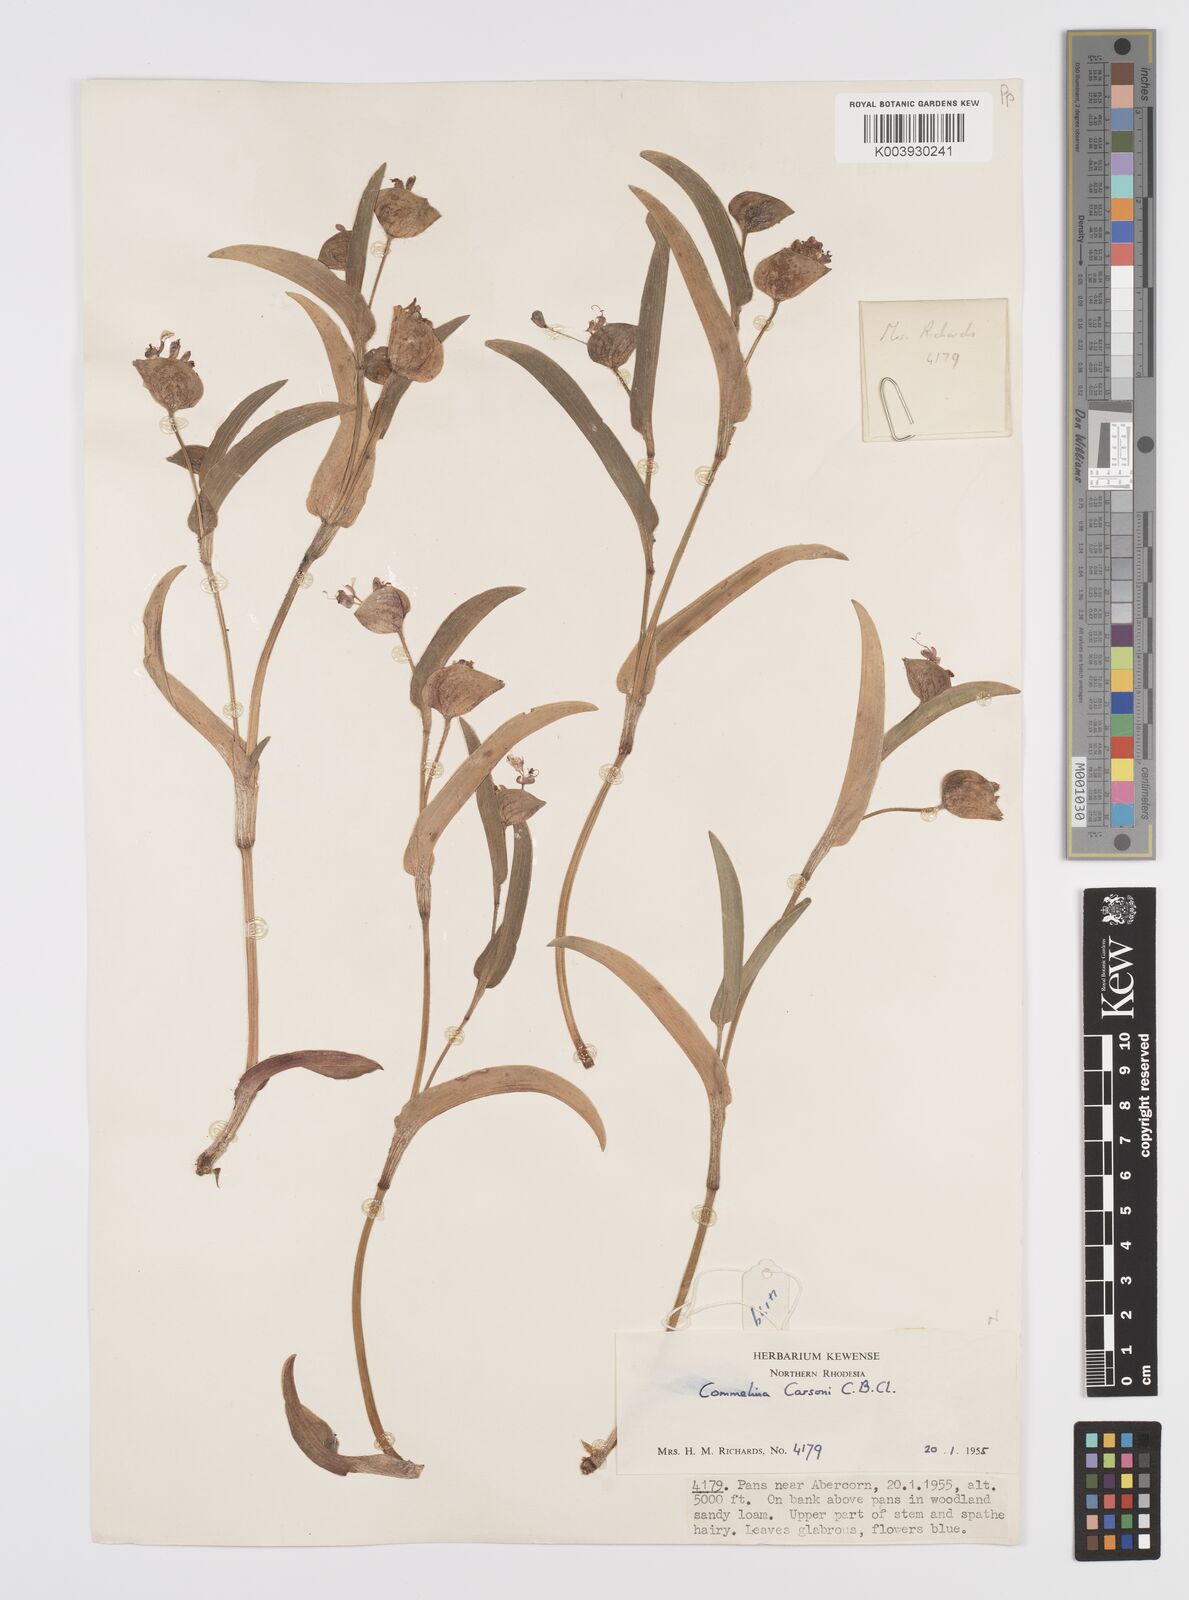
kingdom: Plantae
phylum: Tracheophyta
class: Liliopsida
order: Commelinales
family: Commelinaceae
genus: Commelina
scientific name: Commelina schweinfurthii
